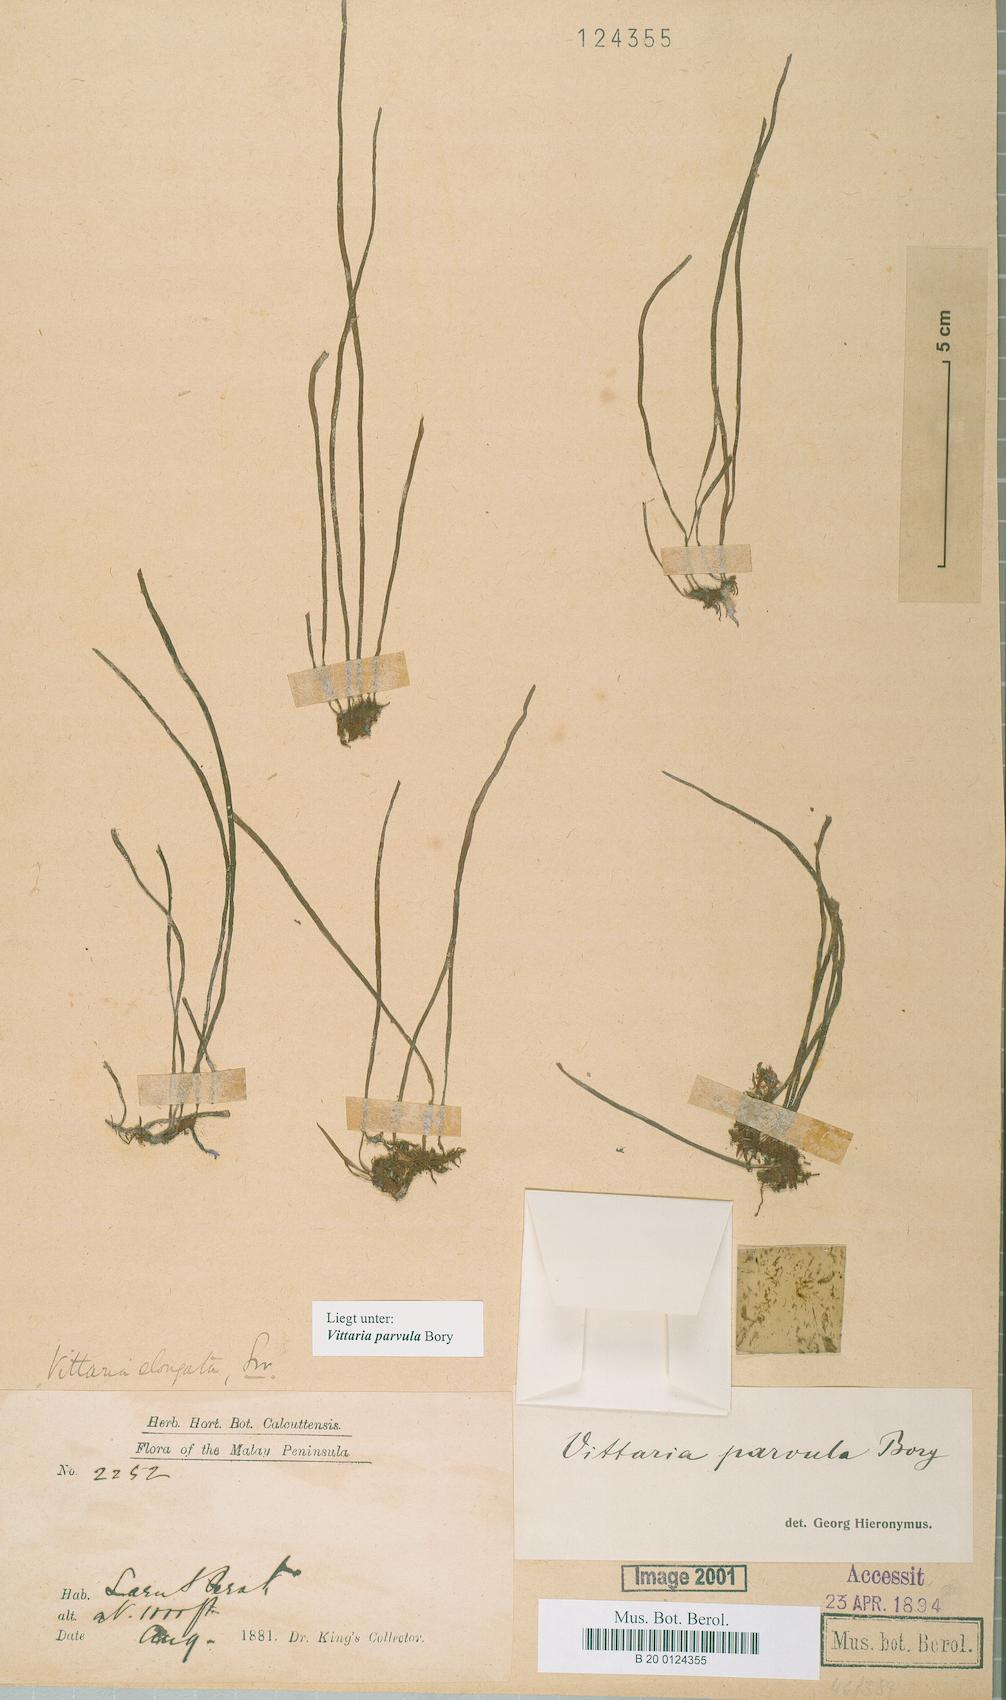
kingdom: Plantae
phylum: Tracheophyta
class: Polypodiopsida
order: Polypodiales
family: Pteridaceae
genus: Haplopteris
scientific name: Haplopteris elongata
